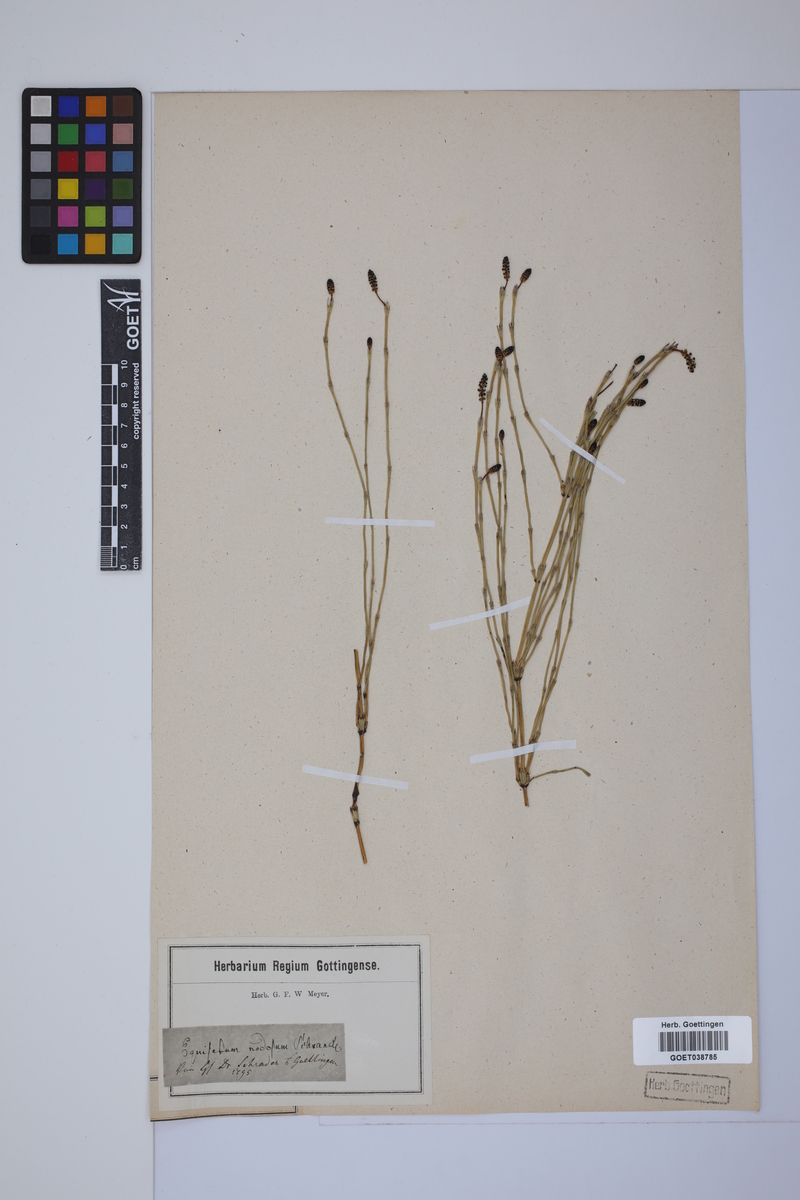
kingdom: Plantae
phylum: Tracheophyta
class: Polypodiopsida
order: Equisetales
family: Equisetaceae
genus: Equisetum
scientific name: Equisetum palustre
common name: Marsh horsetail
